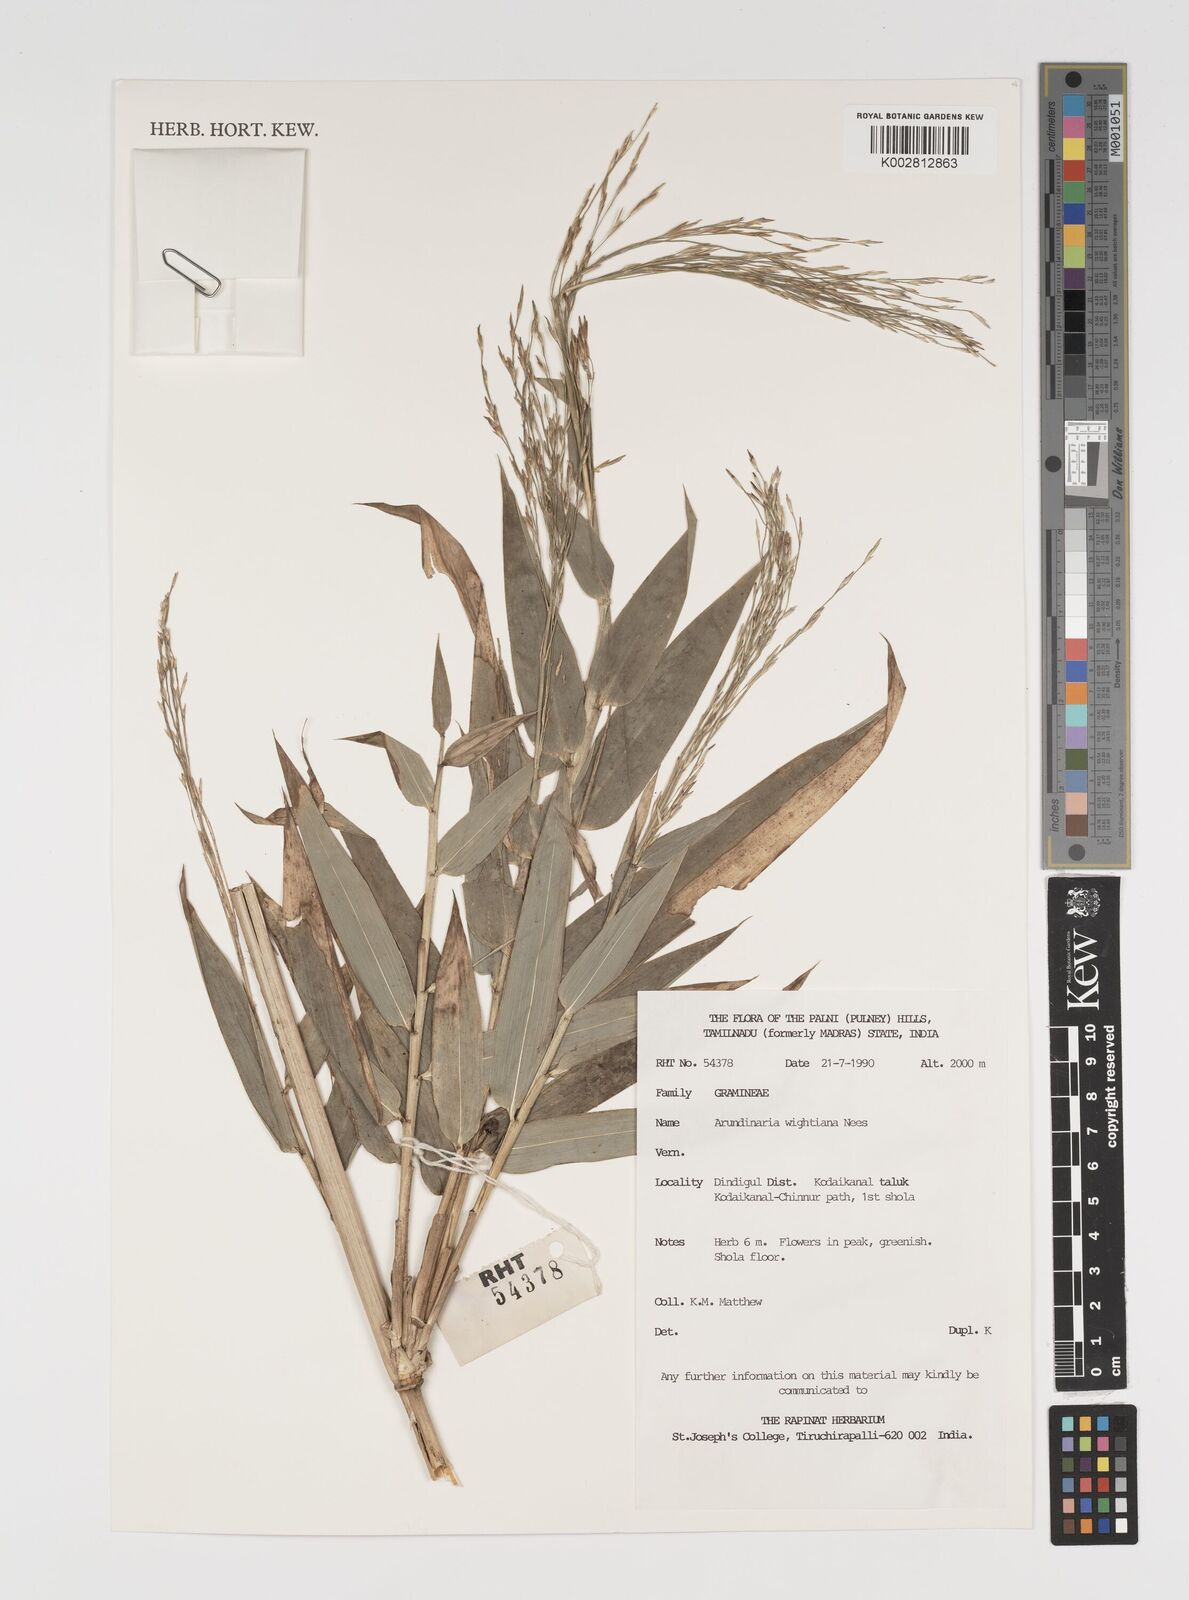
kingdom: Plantae
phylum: Tracheophyta
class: Liliopsida
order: Poales
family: Poaceae
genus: Kuruna
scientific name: Kuruna wightiana
